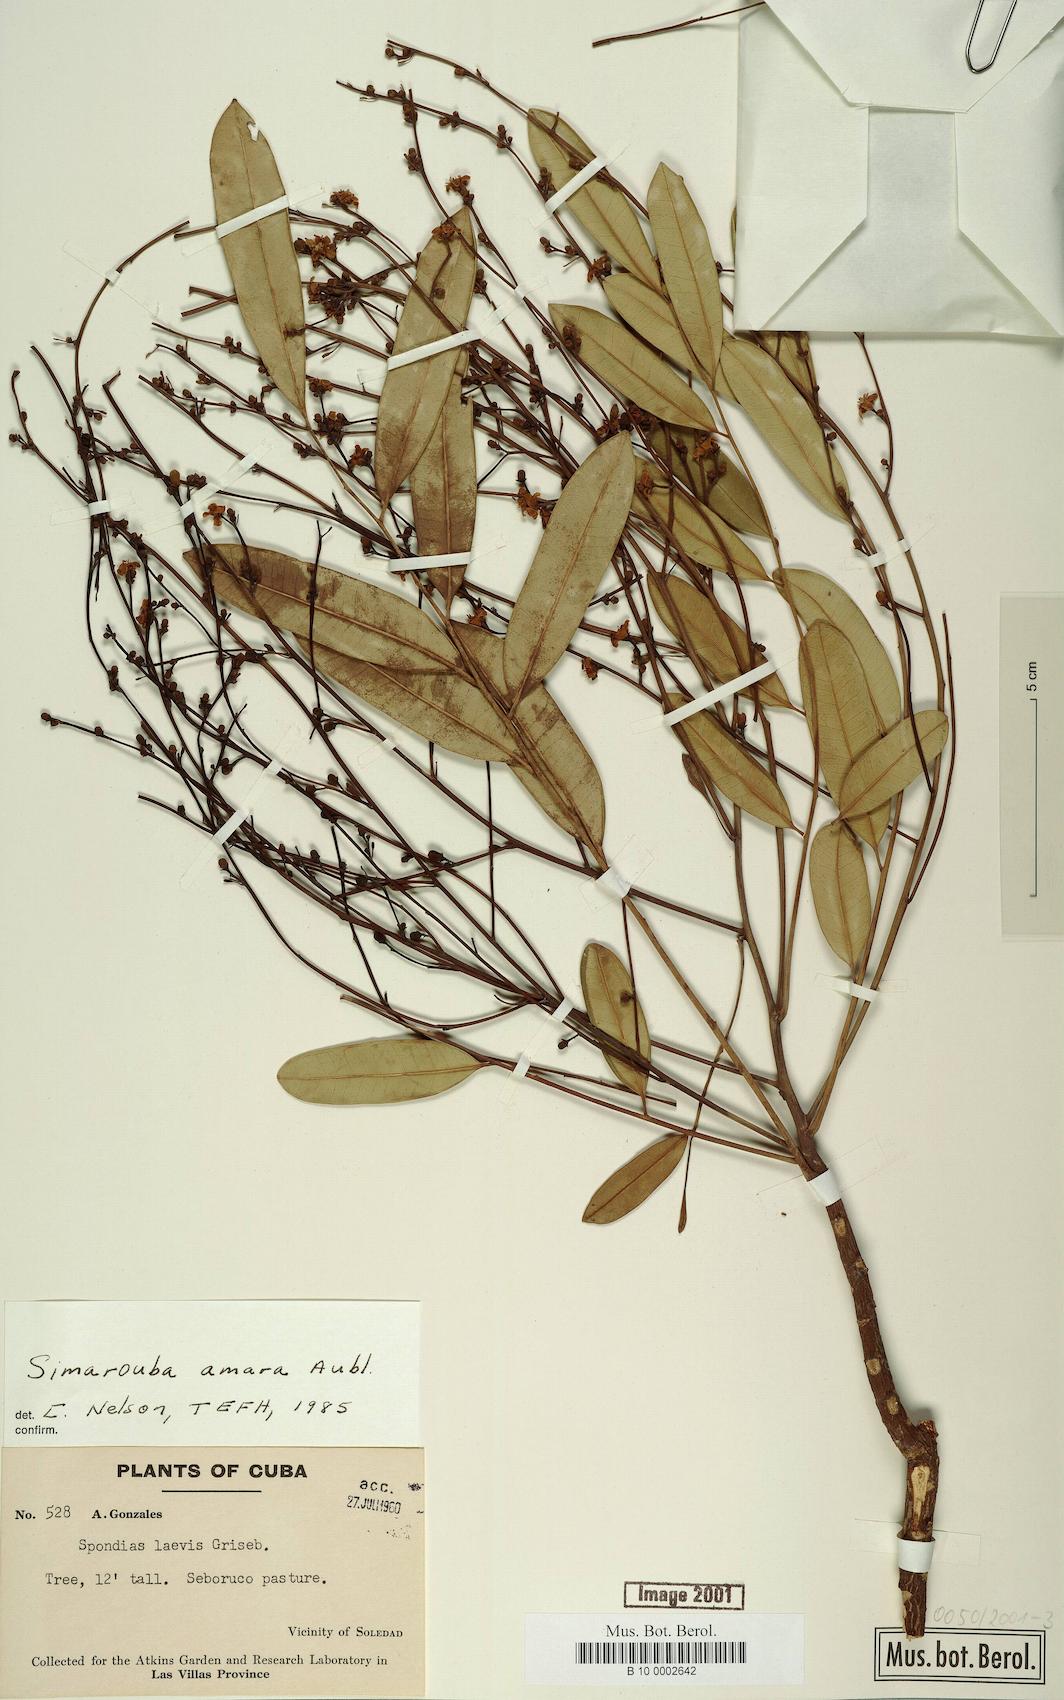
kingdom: Plantae
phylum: Tracheophyta
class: Magnoliopsida
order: Sapindales
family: Simaroubaceae
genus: Simarouba
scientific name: Simarouba amara
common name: Bitterwood
